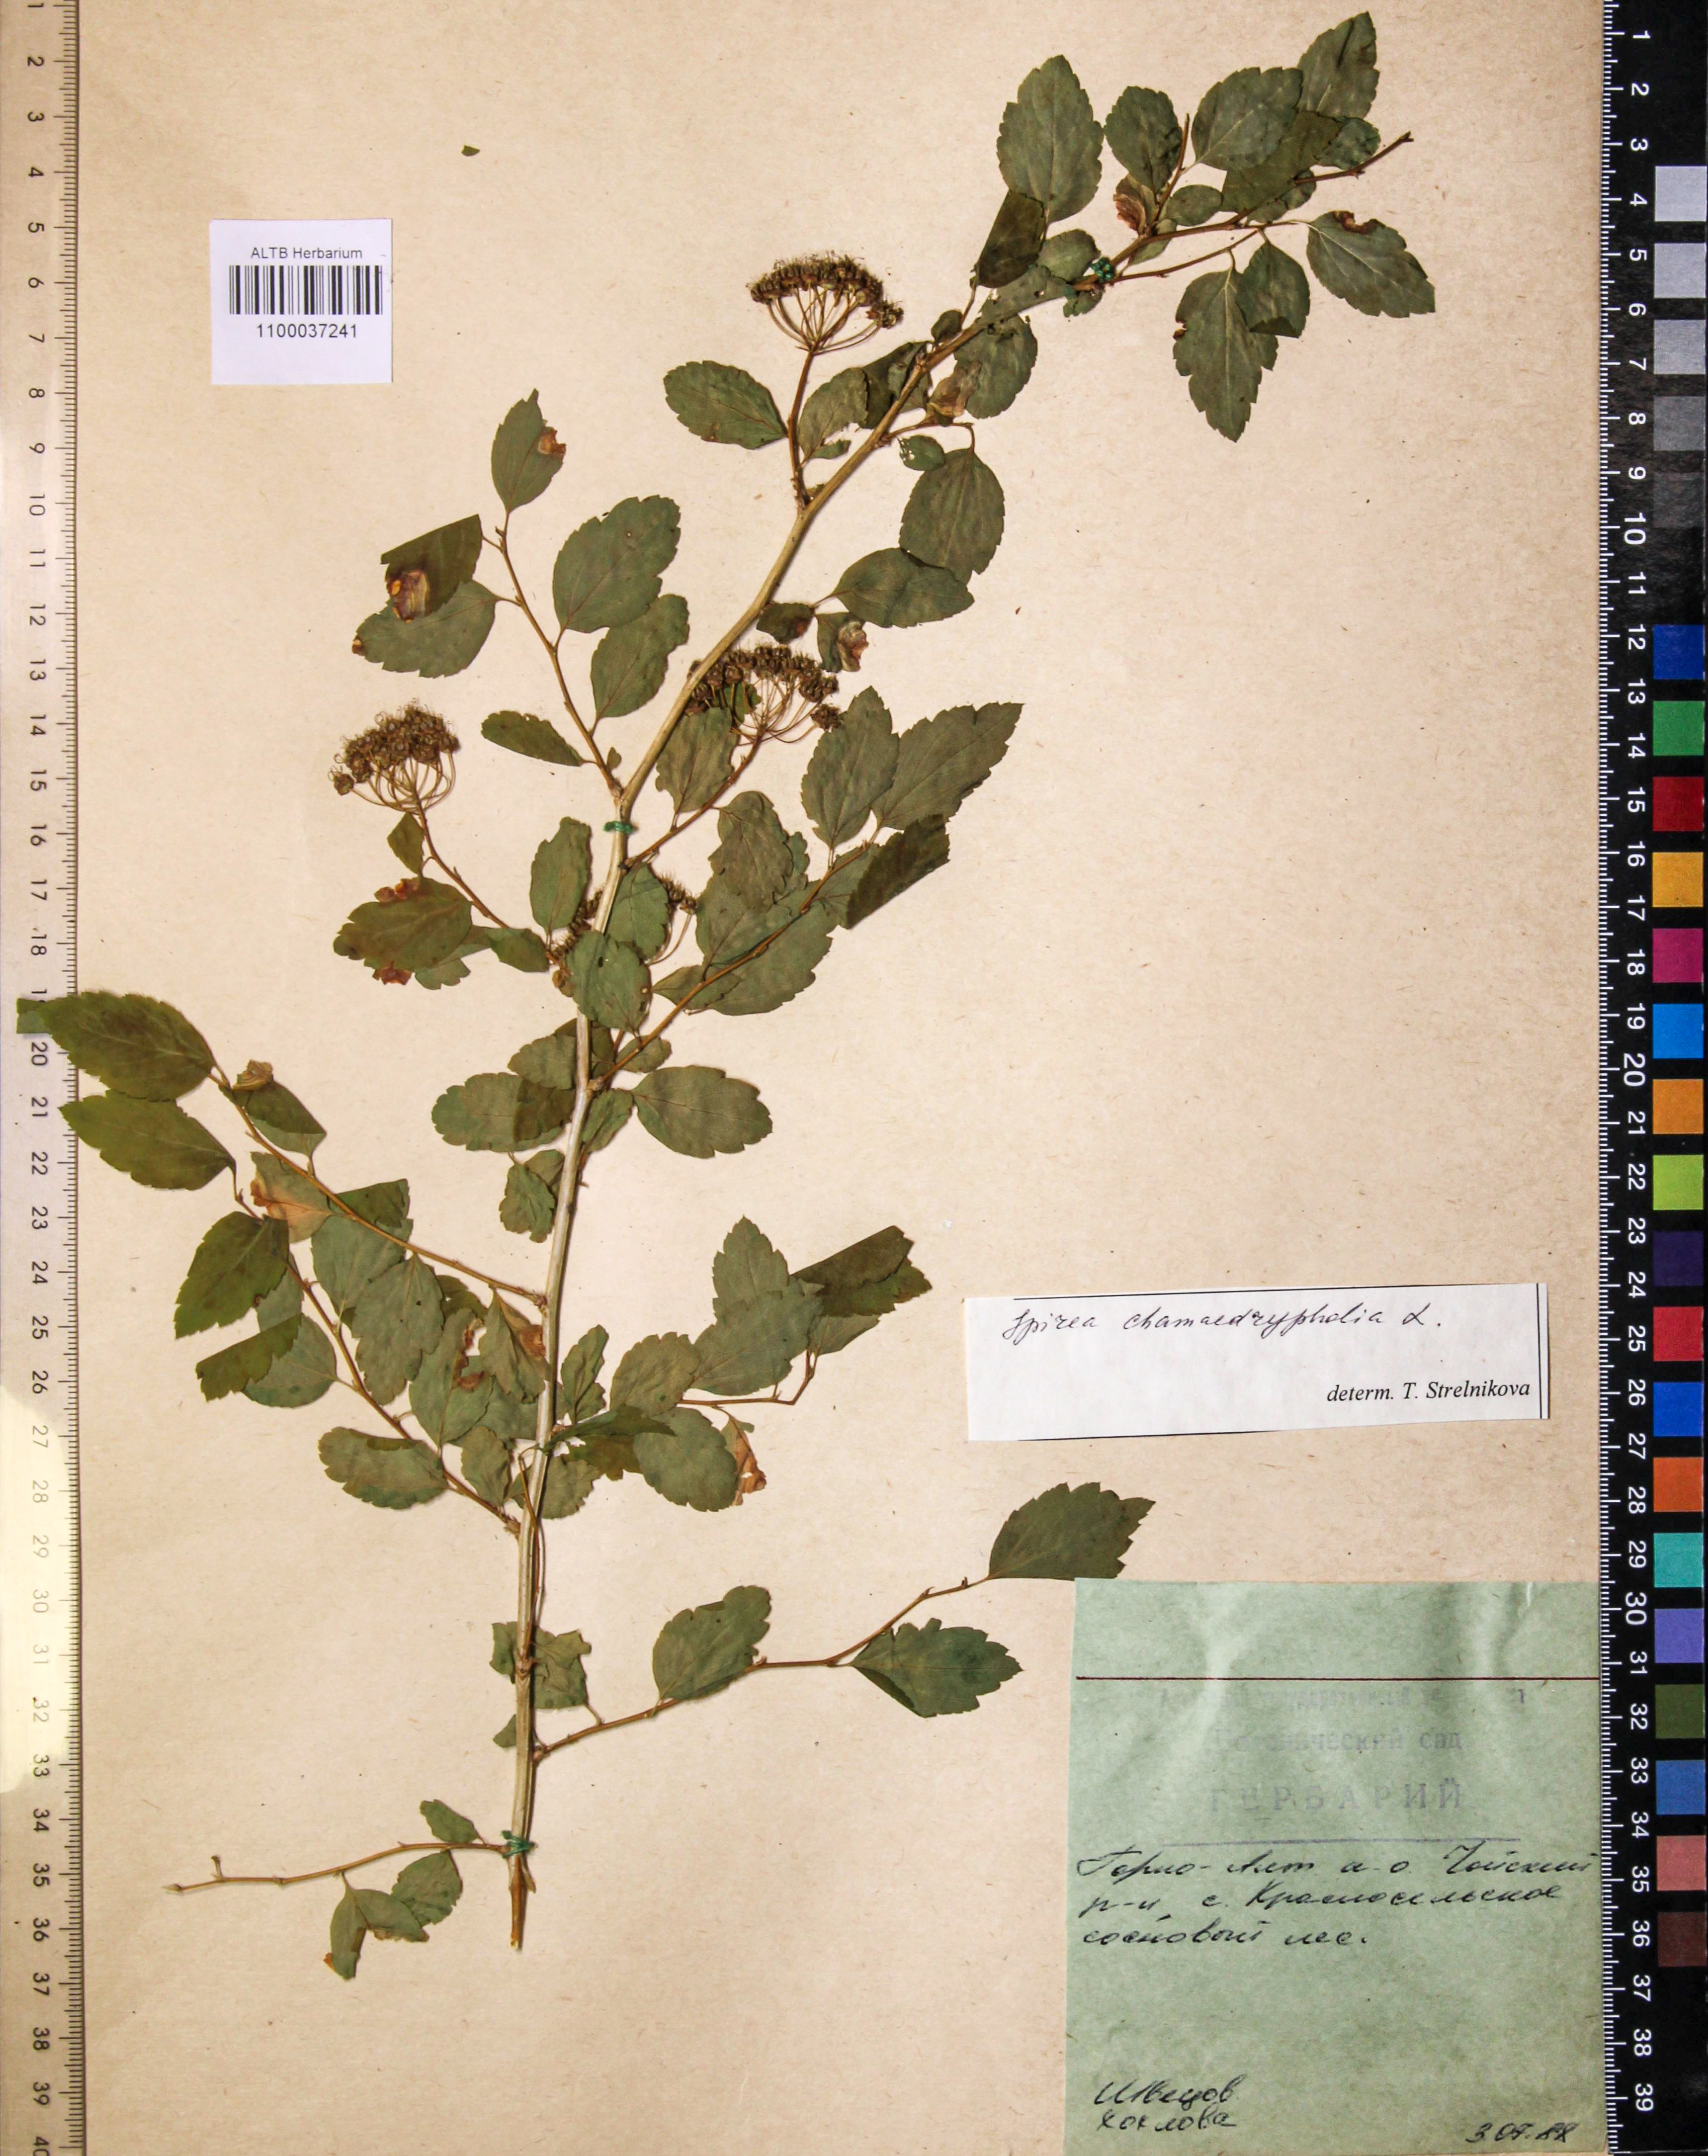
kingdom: Plantae
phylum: Tracheophyta
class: Magnoliopsida
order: Rosales
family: Rosaceae
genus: Spiraea
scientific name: Spiraea chamaedryfolia
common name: Elm-leaved spiraea
